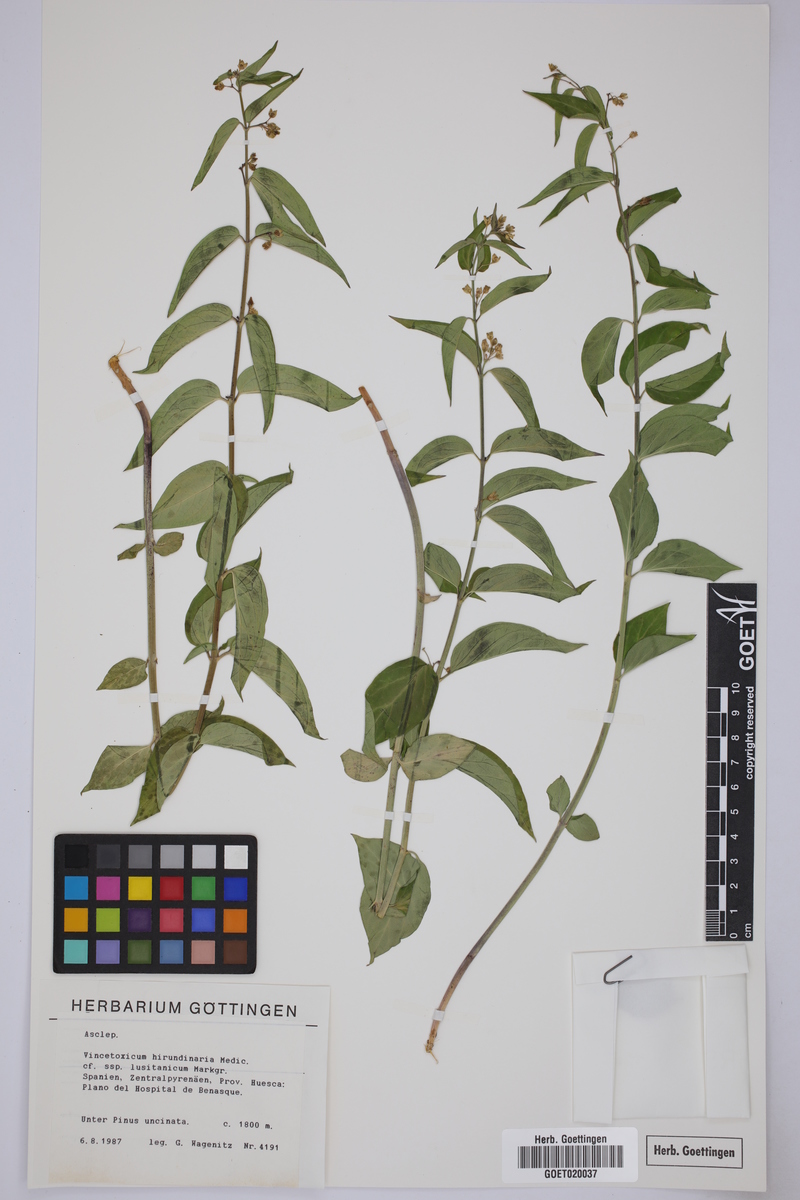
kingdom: Plantae
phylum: Tracheophyta
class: Magnoliopsida
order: Gentianales
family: Apocynaceae
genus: Vincetoxicum
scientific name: Vincetoxicum hirundinaria
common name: White swallowwort
